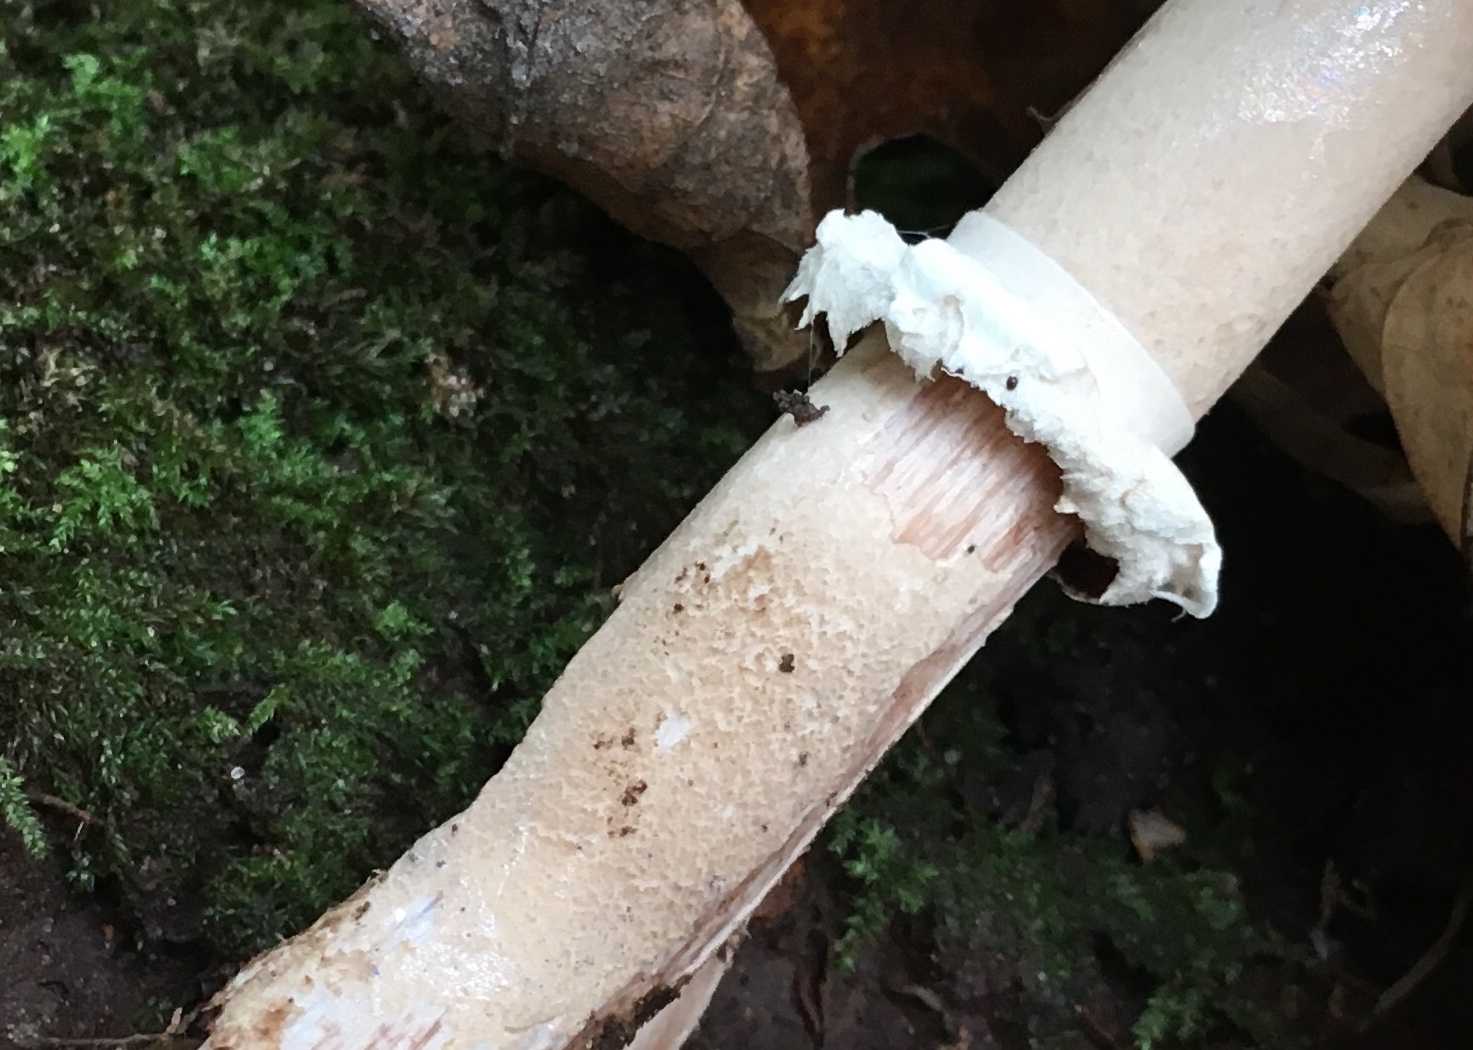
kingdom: Fungi
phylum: Basidiomycota
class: Agaricomycetes
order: Agaricales
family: Agaricaceae
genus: Macrolepiota
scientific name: Macrolepiota mastoidea
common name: puklet kæmpeparasolhat
